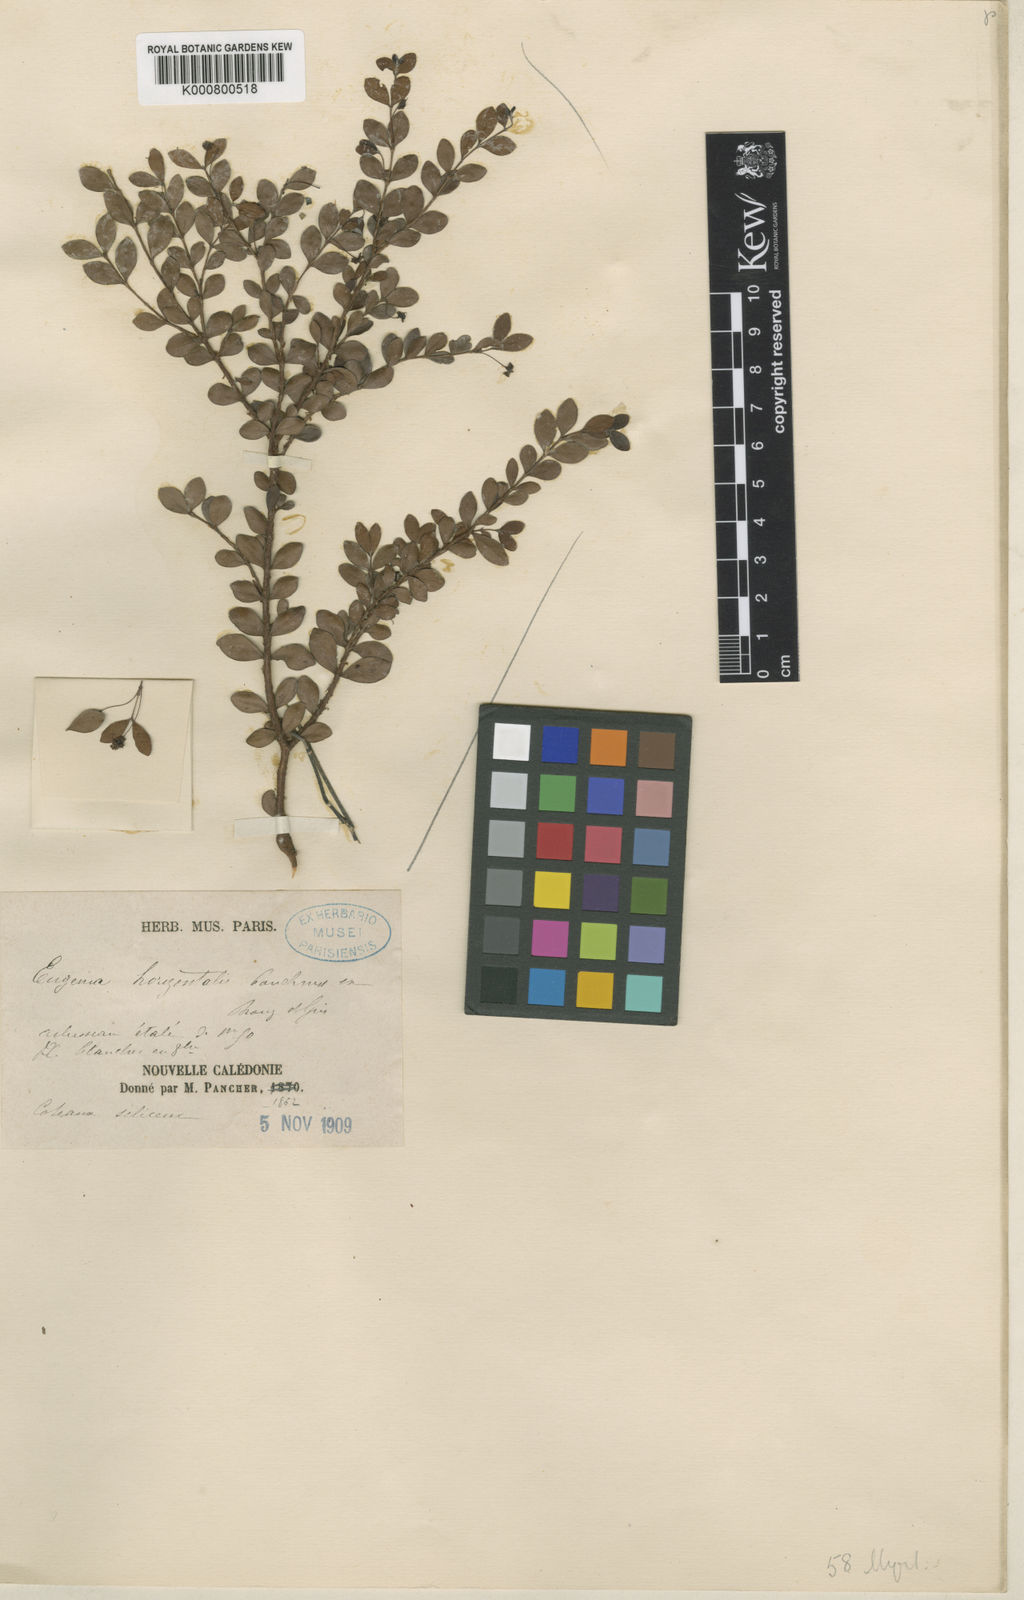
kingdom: Plantae
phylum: Tracheophyta
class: Magnoliopsida
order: Myrtales
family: Myrtaceae
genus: Eugenia
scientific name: Eugenia horizontalis
